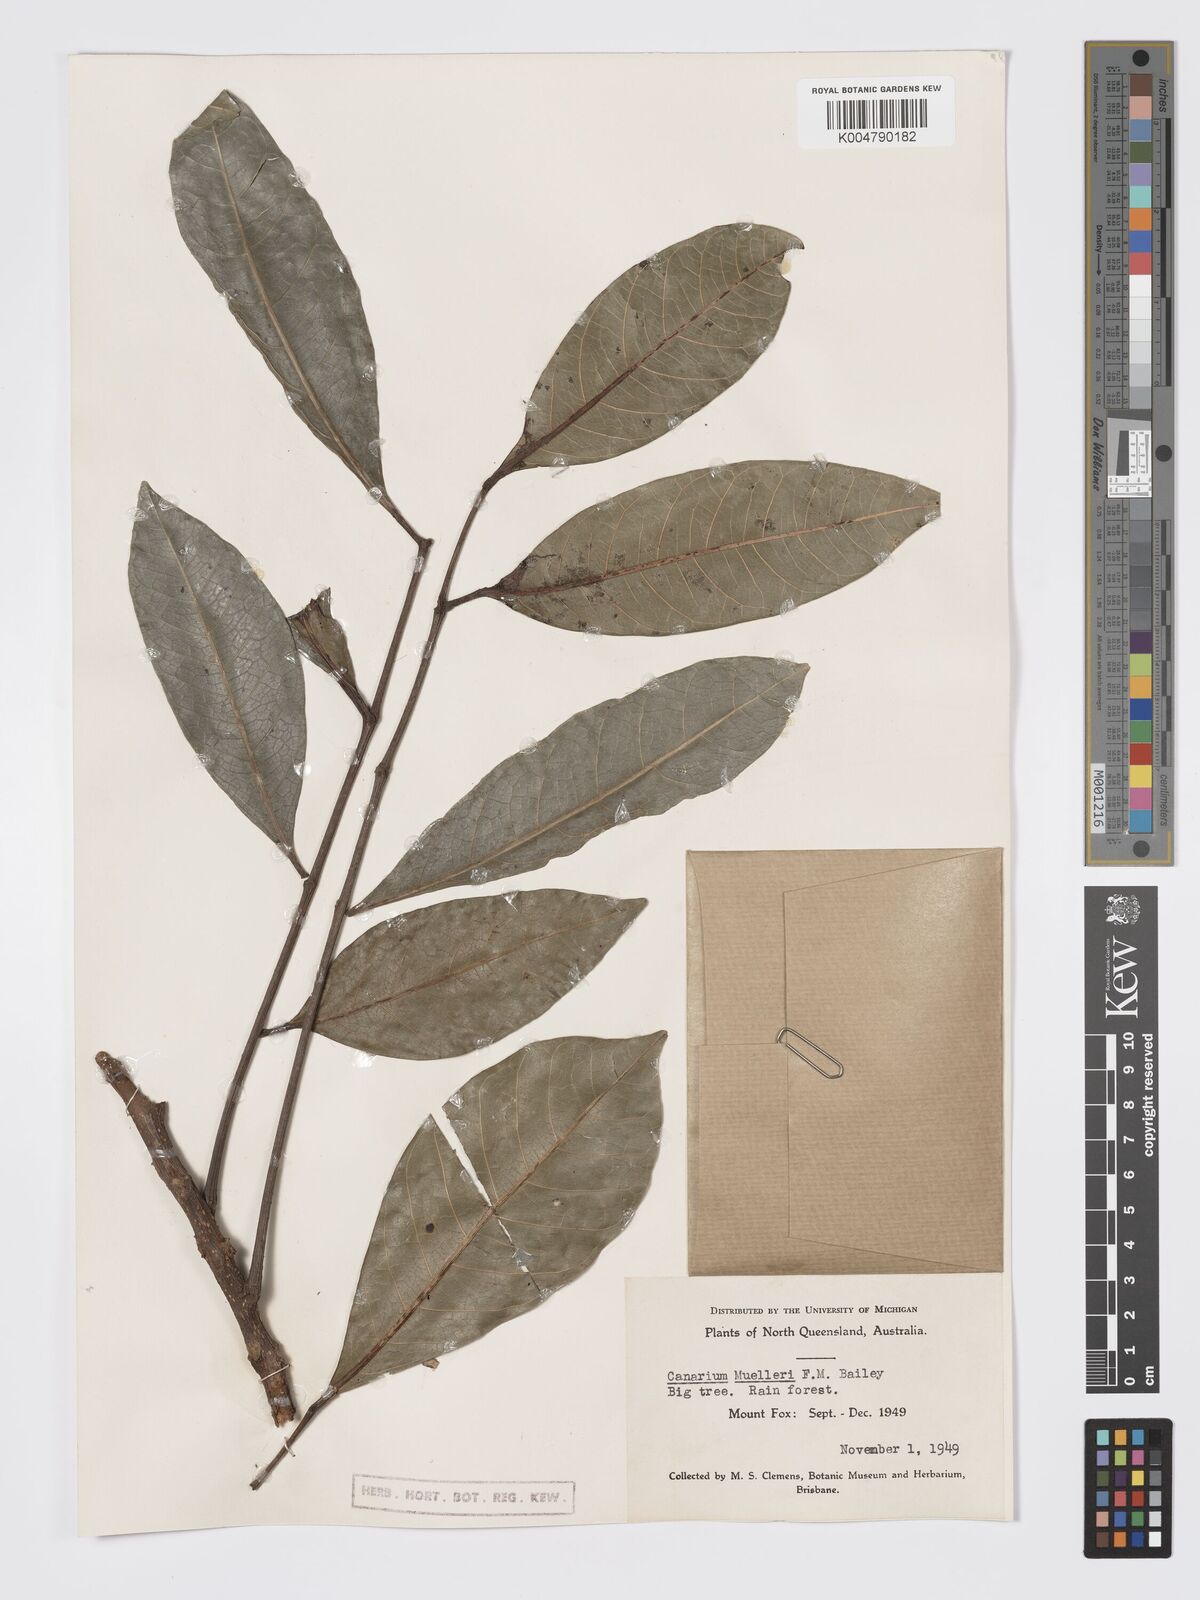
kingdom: Plantae
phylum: Tracheophyta
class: Magnoliopsida
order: Sapindales
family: Burseraceae
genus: Canarium
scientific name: Canarium muelleri
